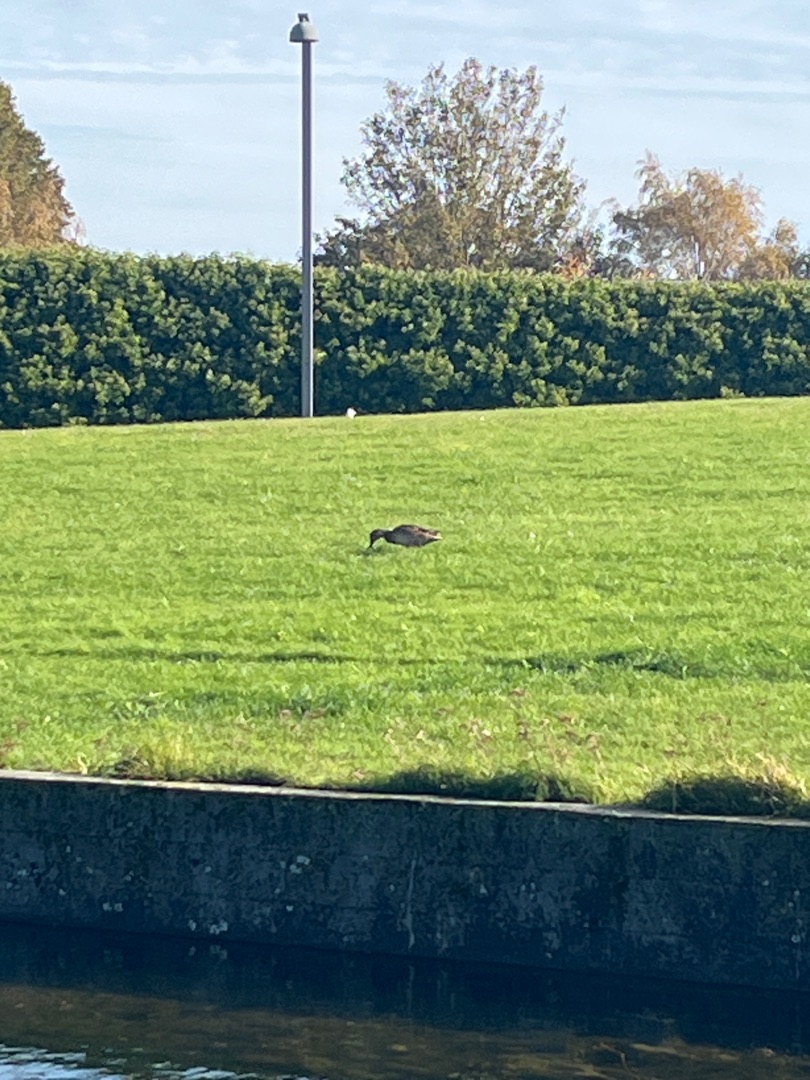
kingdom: Animalia
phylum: Chordata
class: Aves
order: Anseriformes
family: Anatidae
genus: Anas
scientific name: Anas platyrhynchos
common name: Gråand
